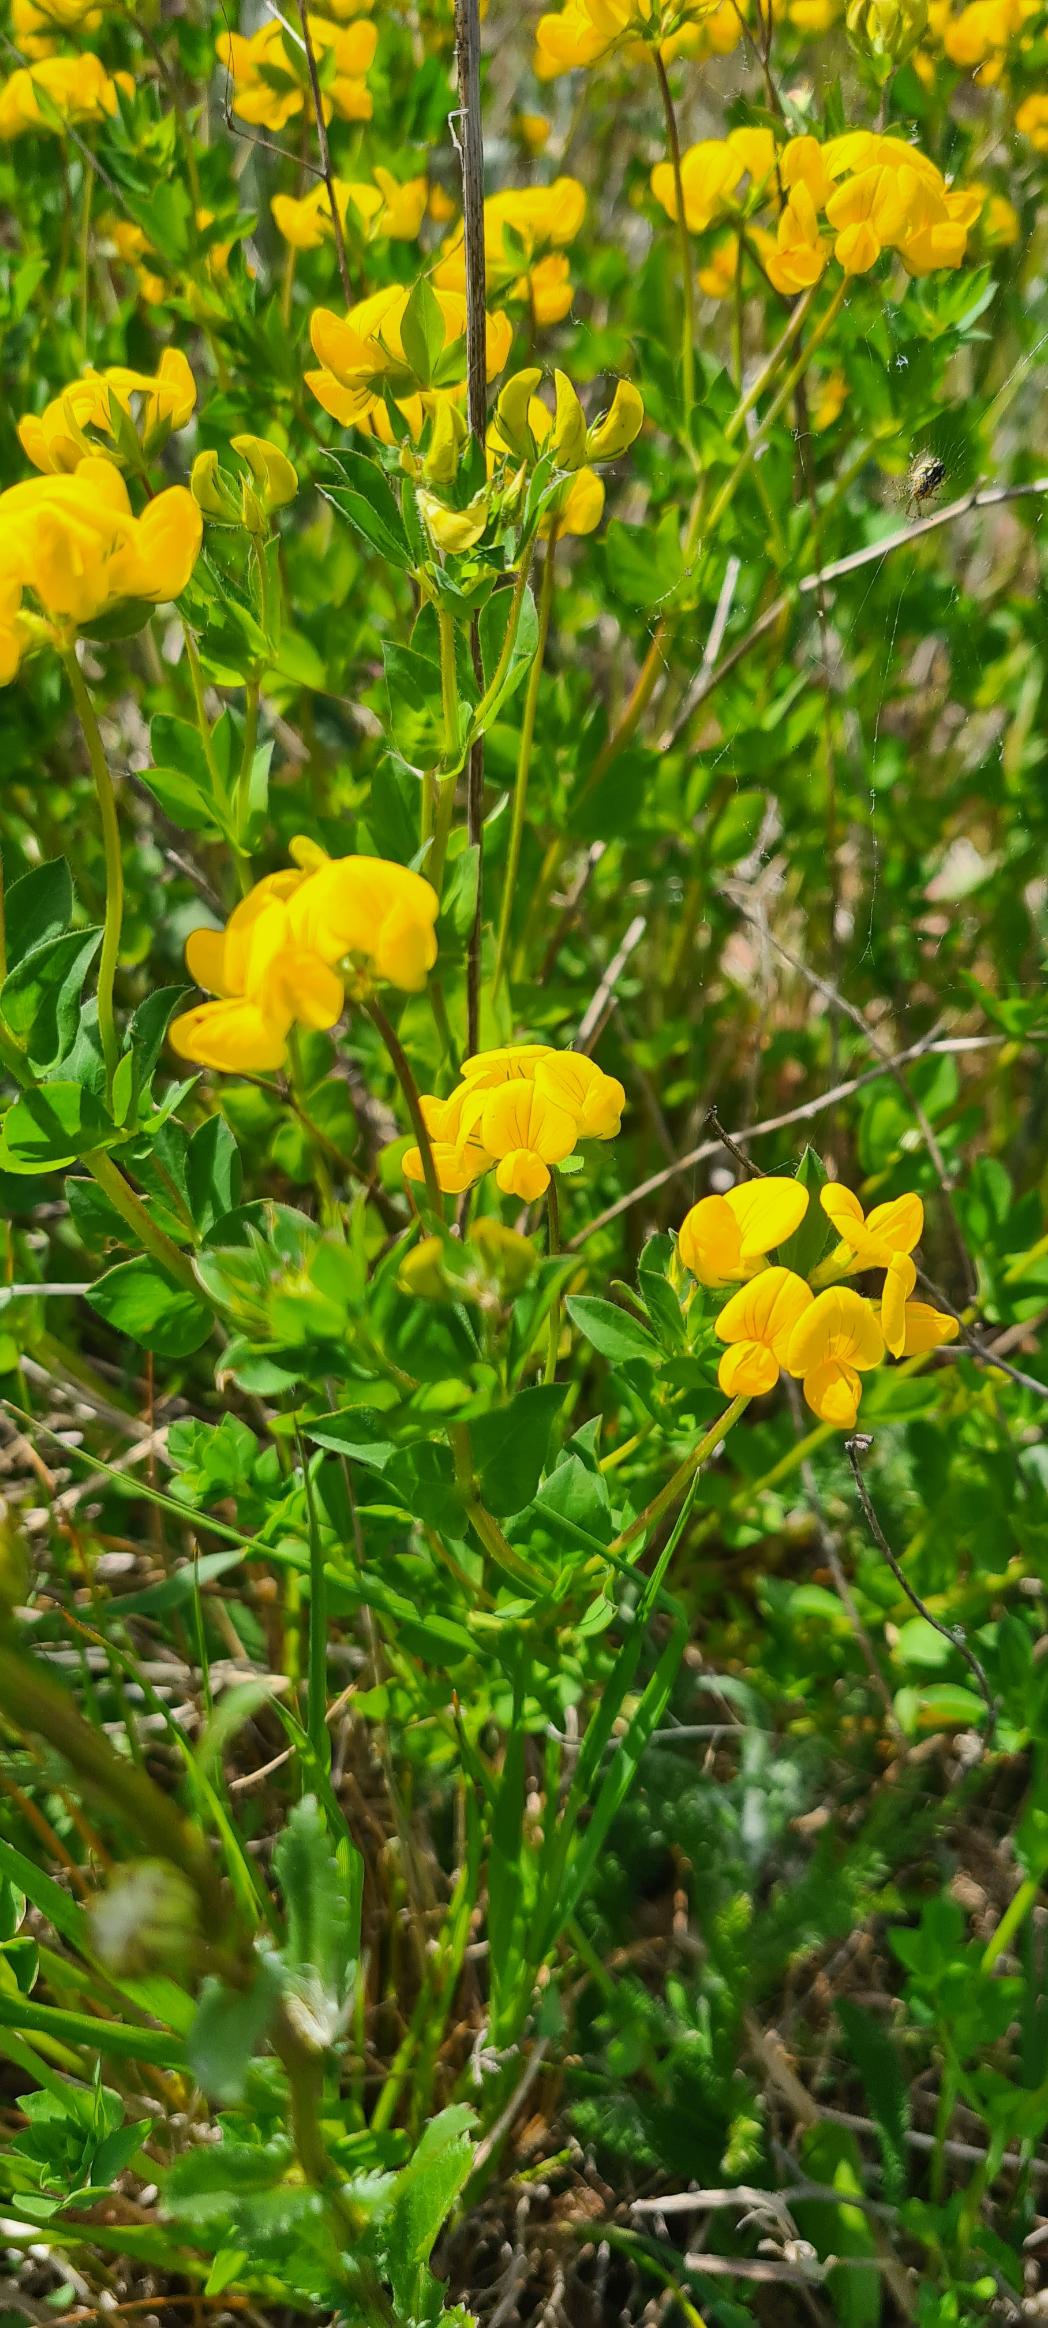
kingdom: Plantae
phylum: Tracheophyta
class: Magnoliopsida
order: Fabales
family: Fabaceae
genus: Lotus
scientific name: Lotus corniculatus
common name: Almindelig kællingetand
